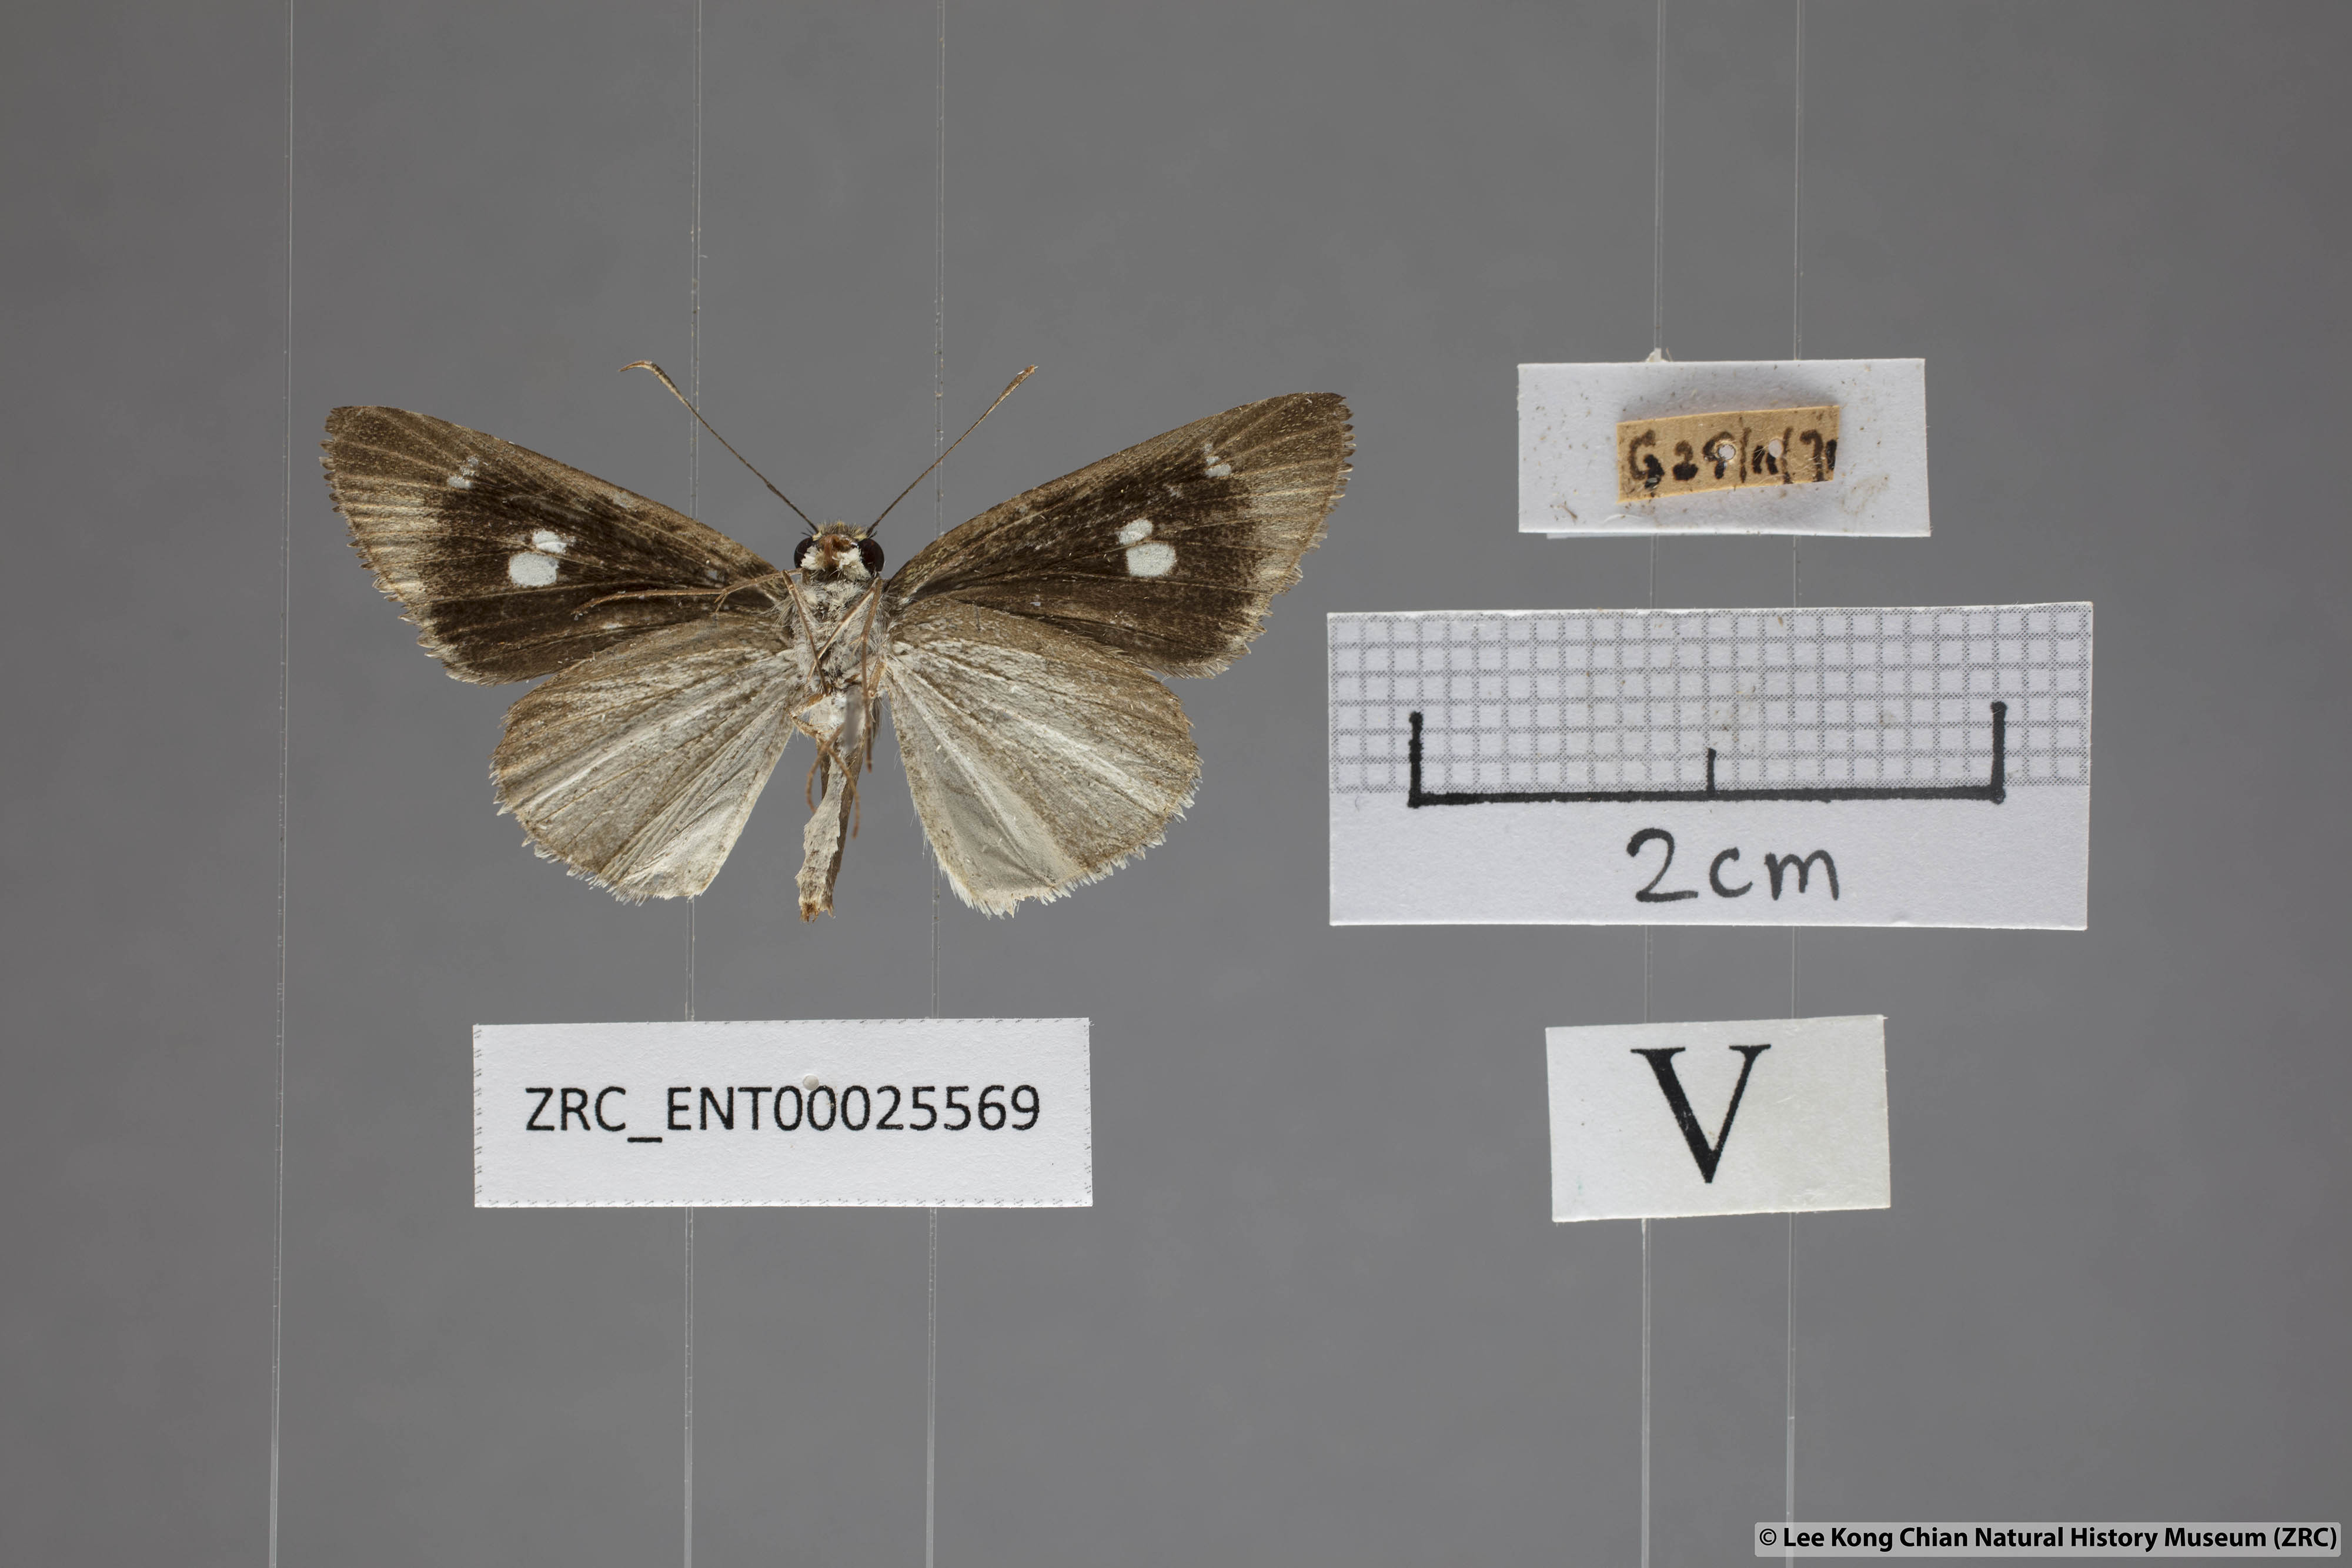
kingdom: Animalia
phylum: Arthropoda
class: Insecta
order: Lepidoptera
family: Hesperiidae
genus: Suada
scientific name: Suada swerga
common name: Grass bob
